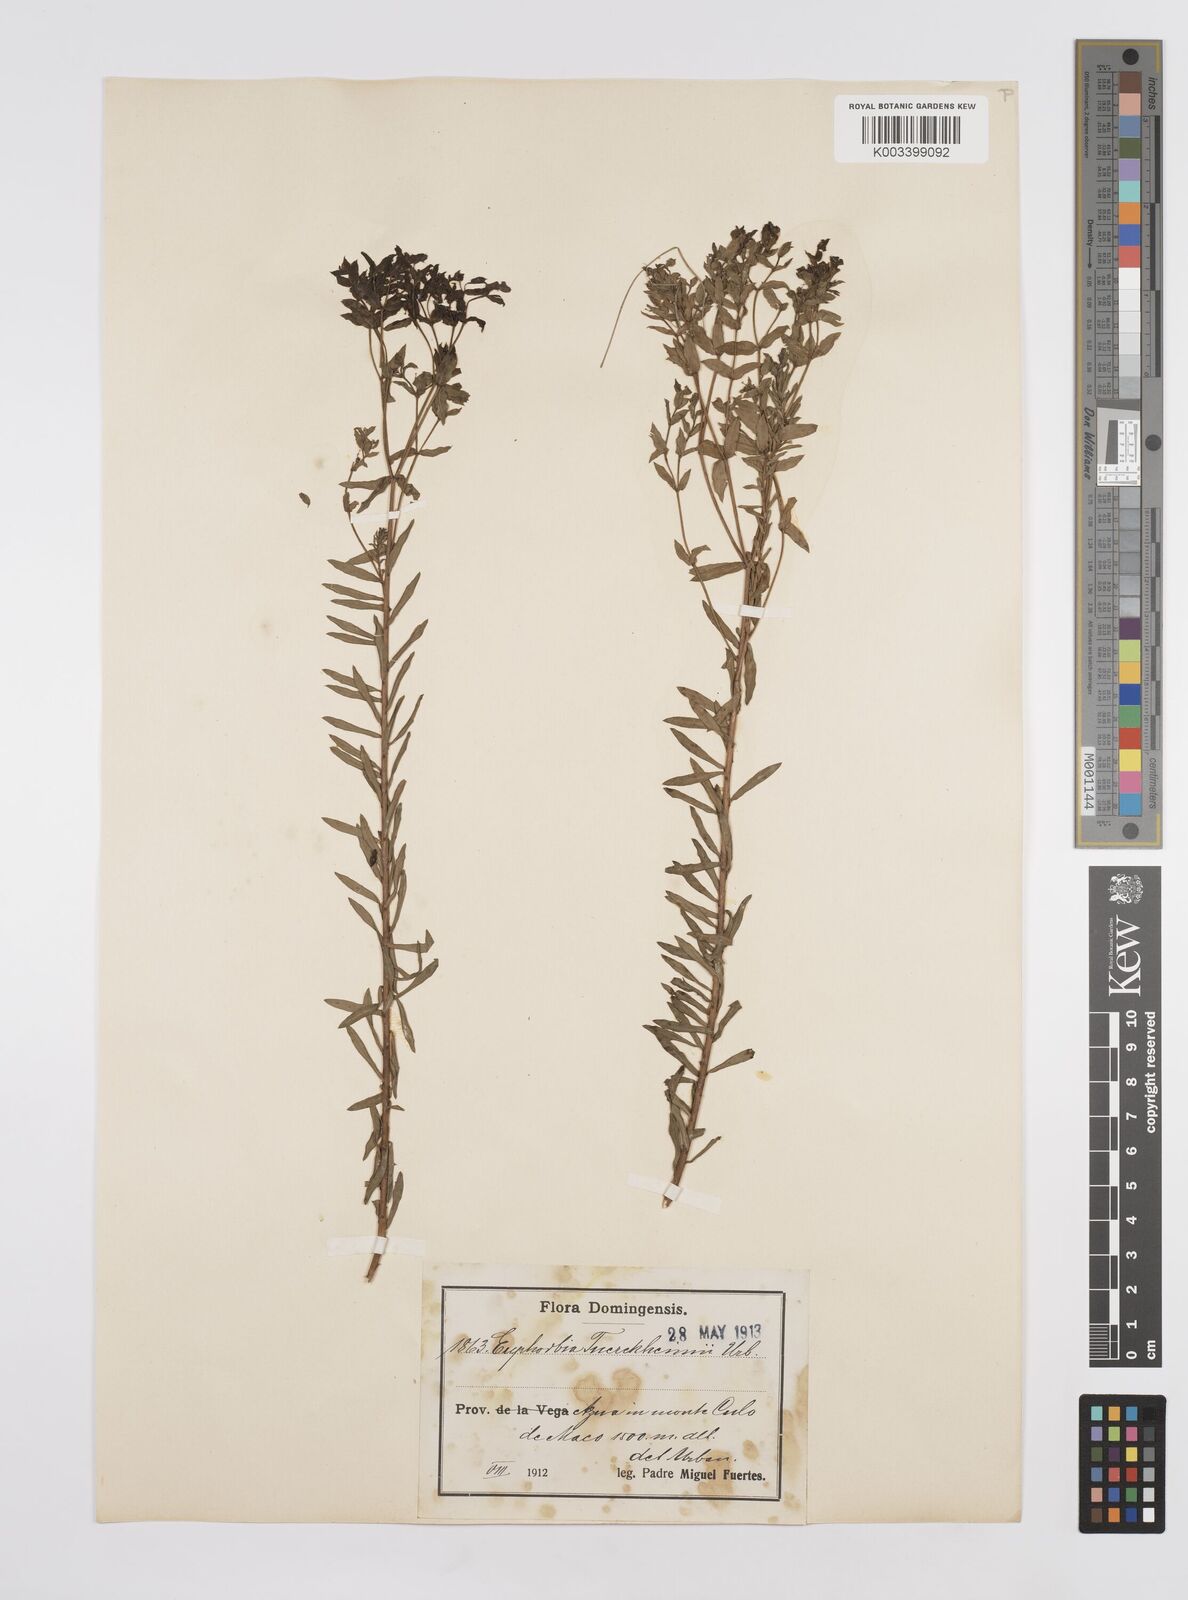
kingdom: Plantae
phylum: Tracheophyta
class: Magnoliopsida
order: Malpighiales
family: Euphorbiaceae
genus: Euphorbia
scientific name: Euphorbia tuerckheimii
